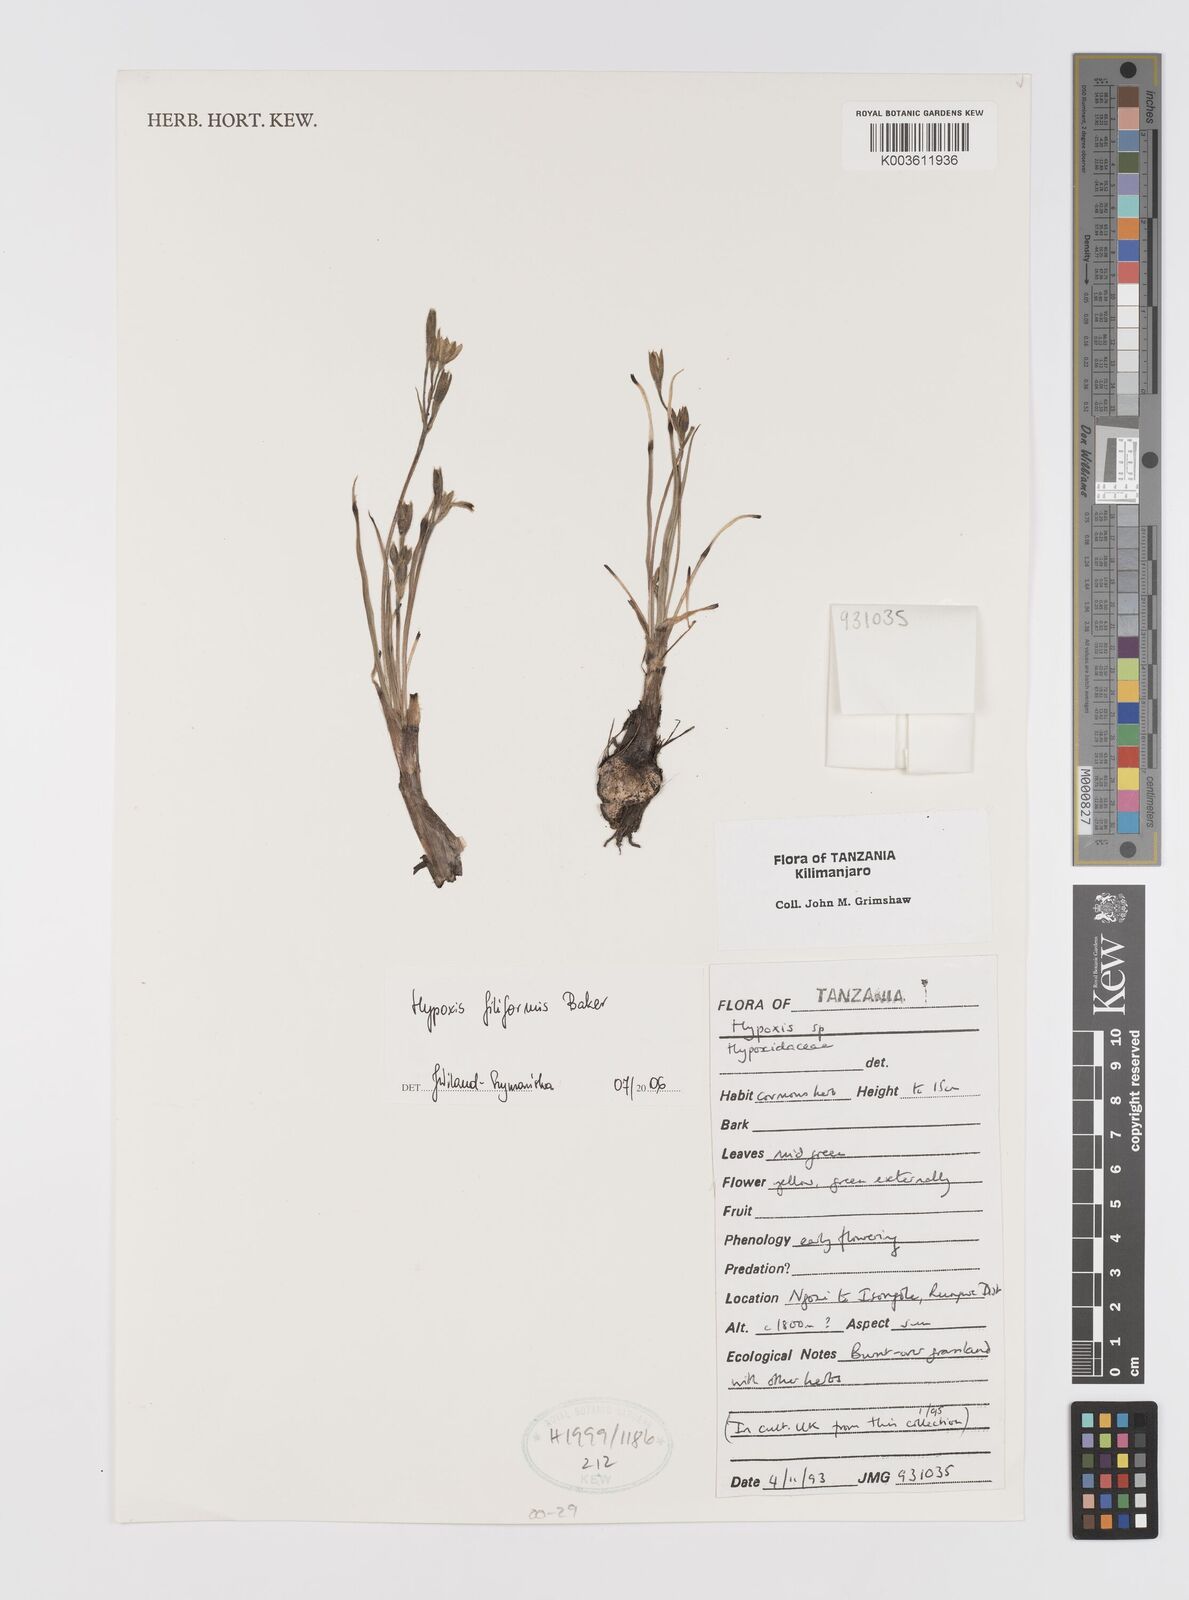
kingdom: Plantae
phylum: Tracheophyta
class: Liliopsida
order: Asparagales
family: Hypoxidaceae
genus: Hypoxis
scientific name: Hypoxis filiformis
